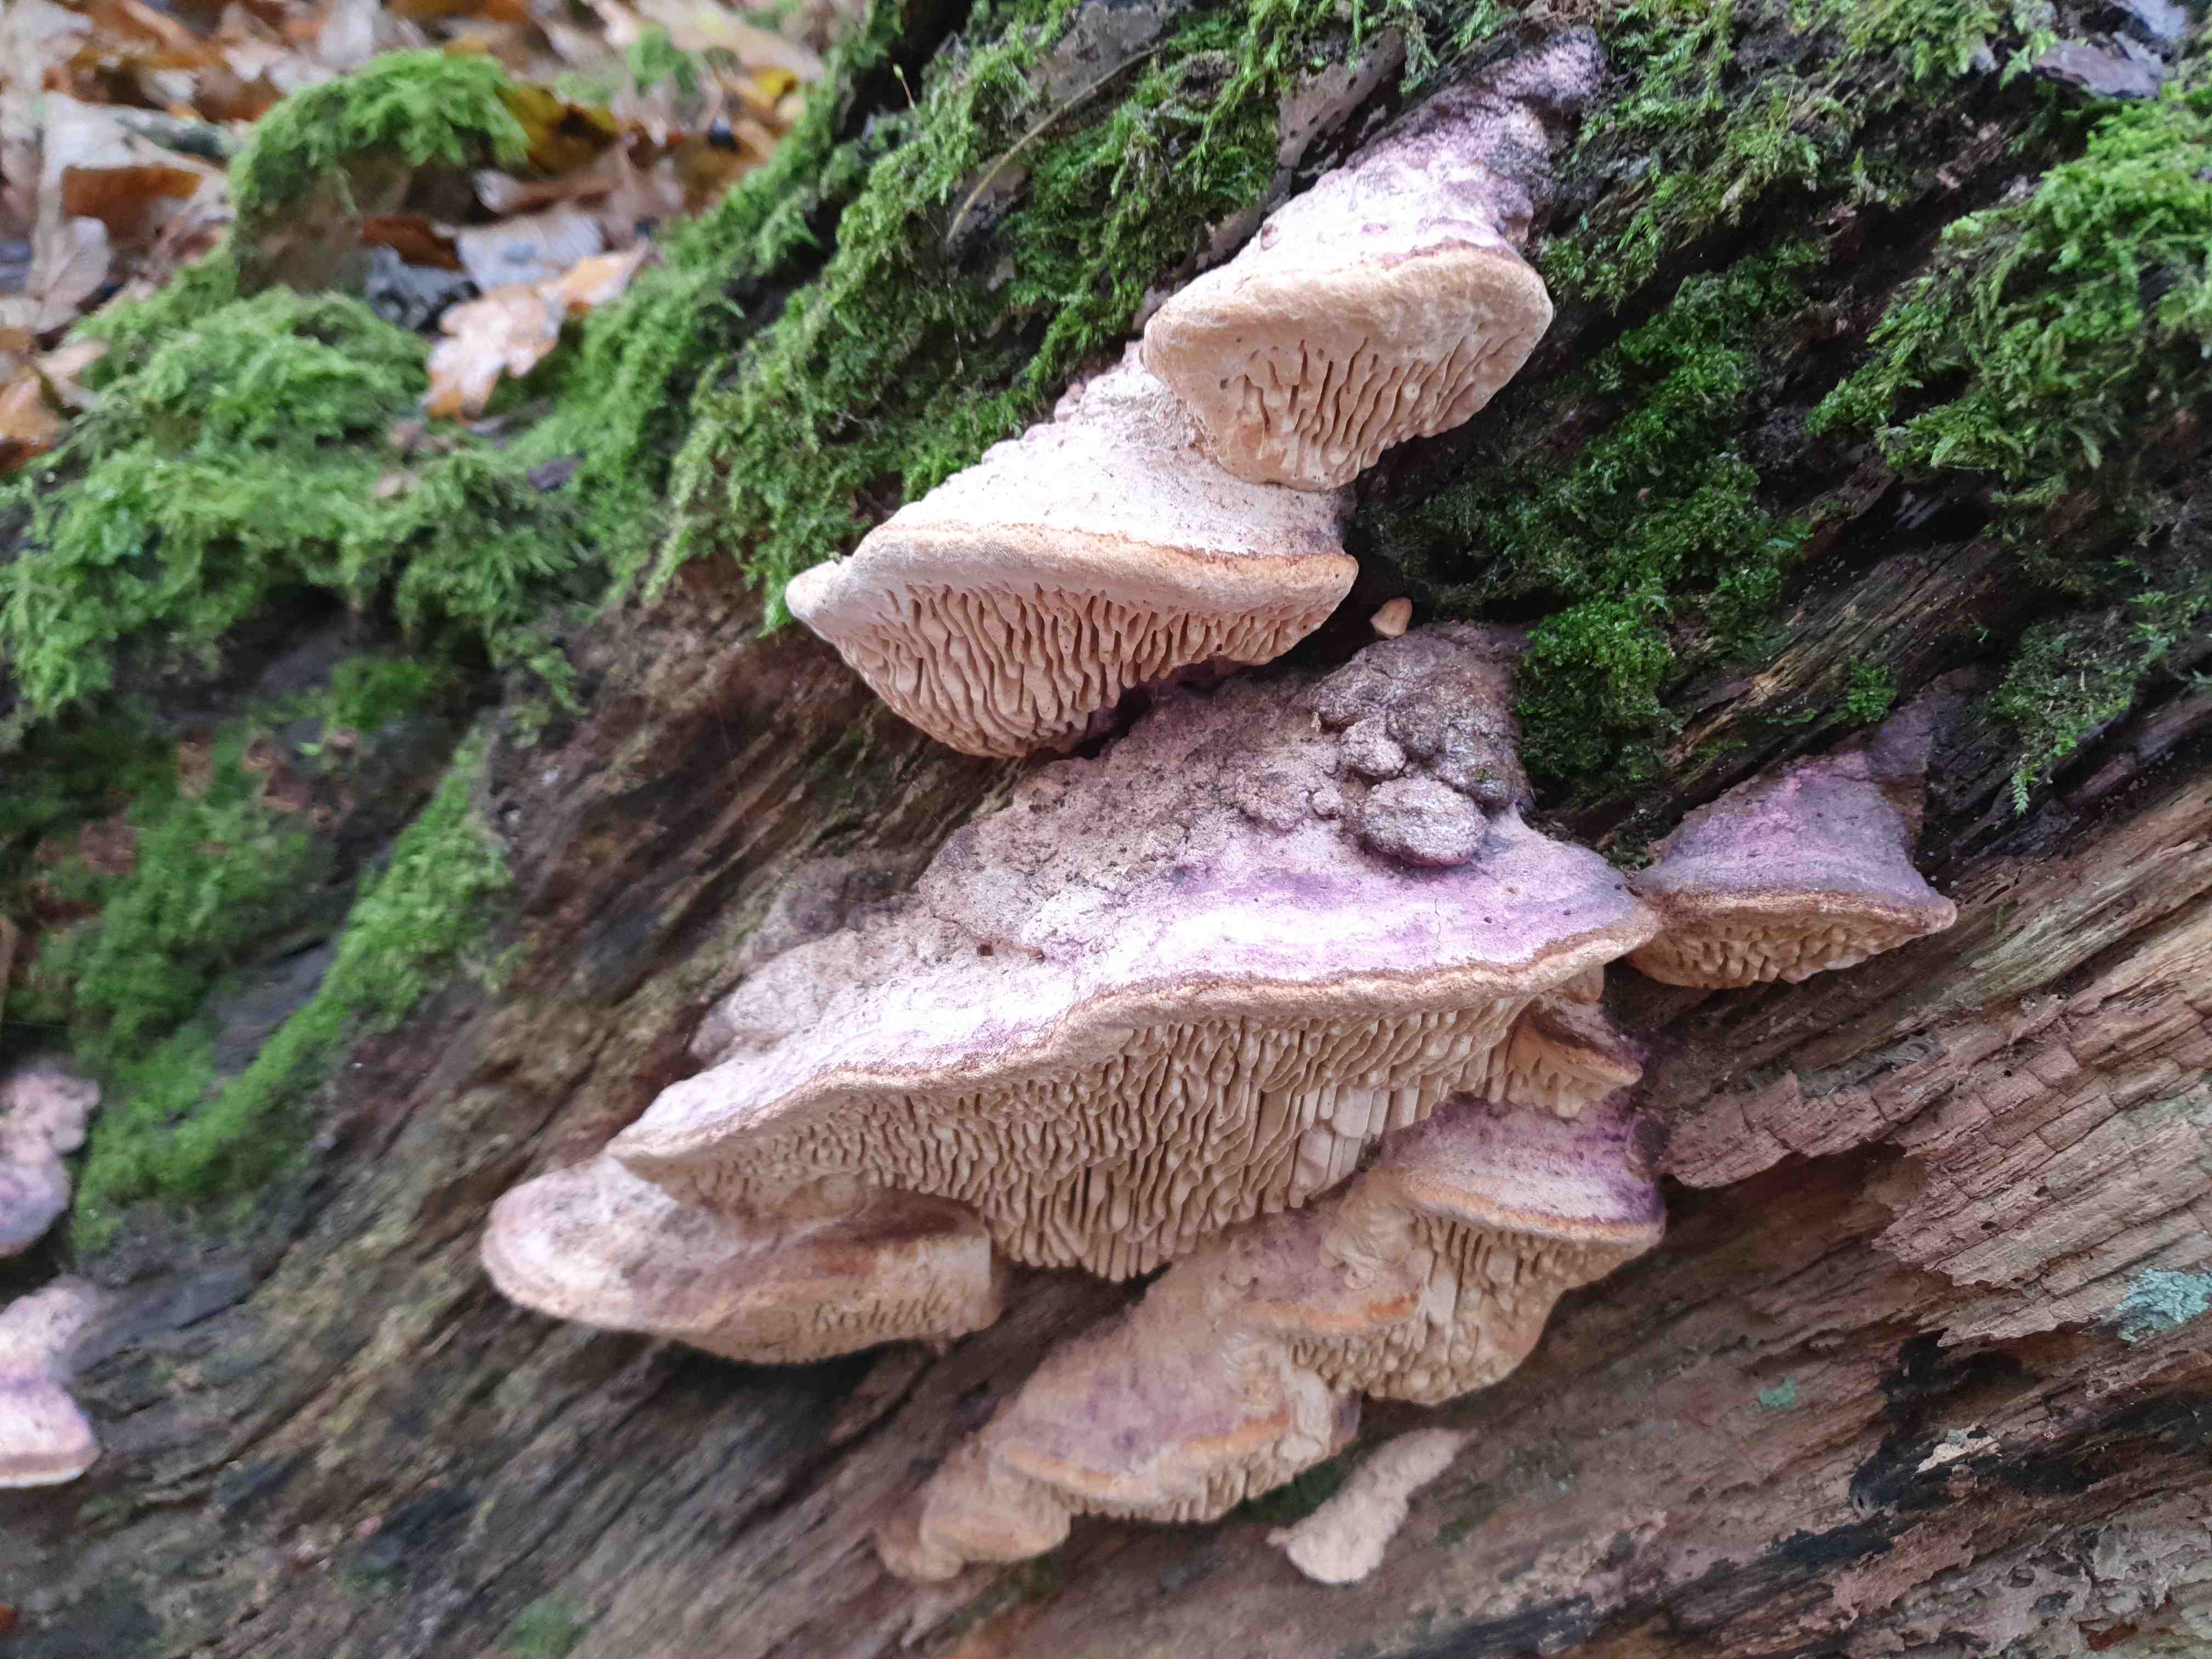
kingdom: Fungi
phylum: Basidiomycota
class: Agaricomycetes
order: Polyporales
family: Fomitopsidaceae
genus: Daedalea
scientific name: Daedalea quercina
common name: ege-labyrintsvamp
